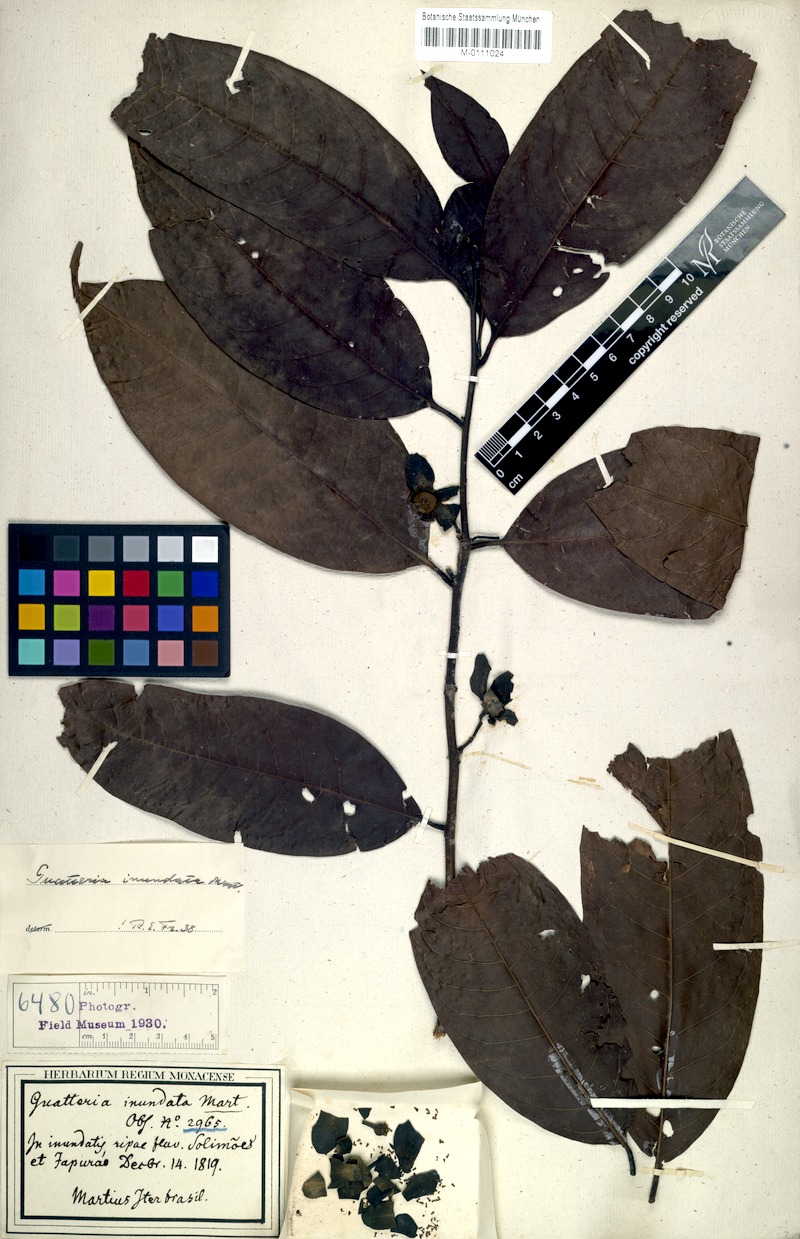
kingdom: Plantae
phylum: Tracheophyta
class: Magnoliopsida
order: Magnoliales
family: Annonaceae
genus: Guatteria
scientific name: Guatteria inundata
